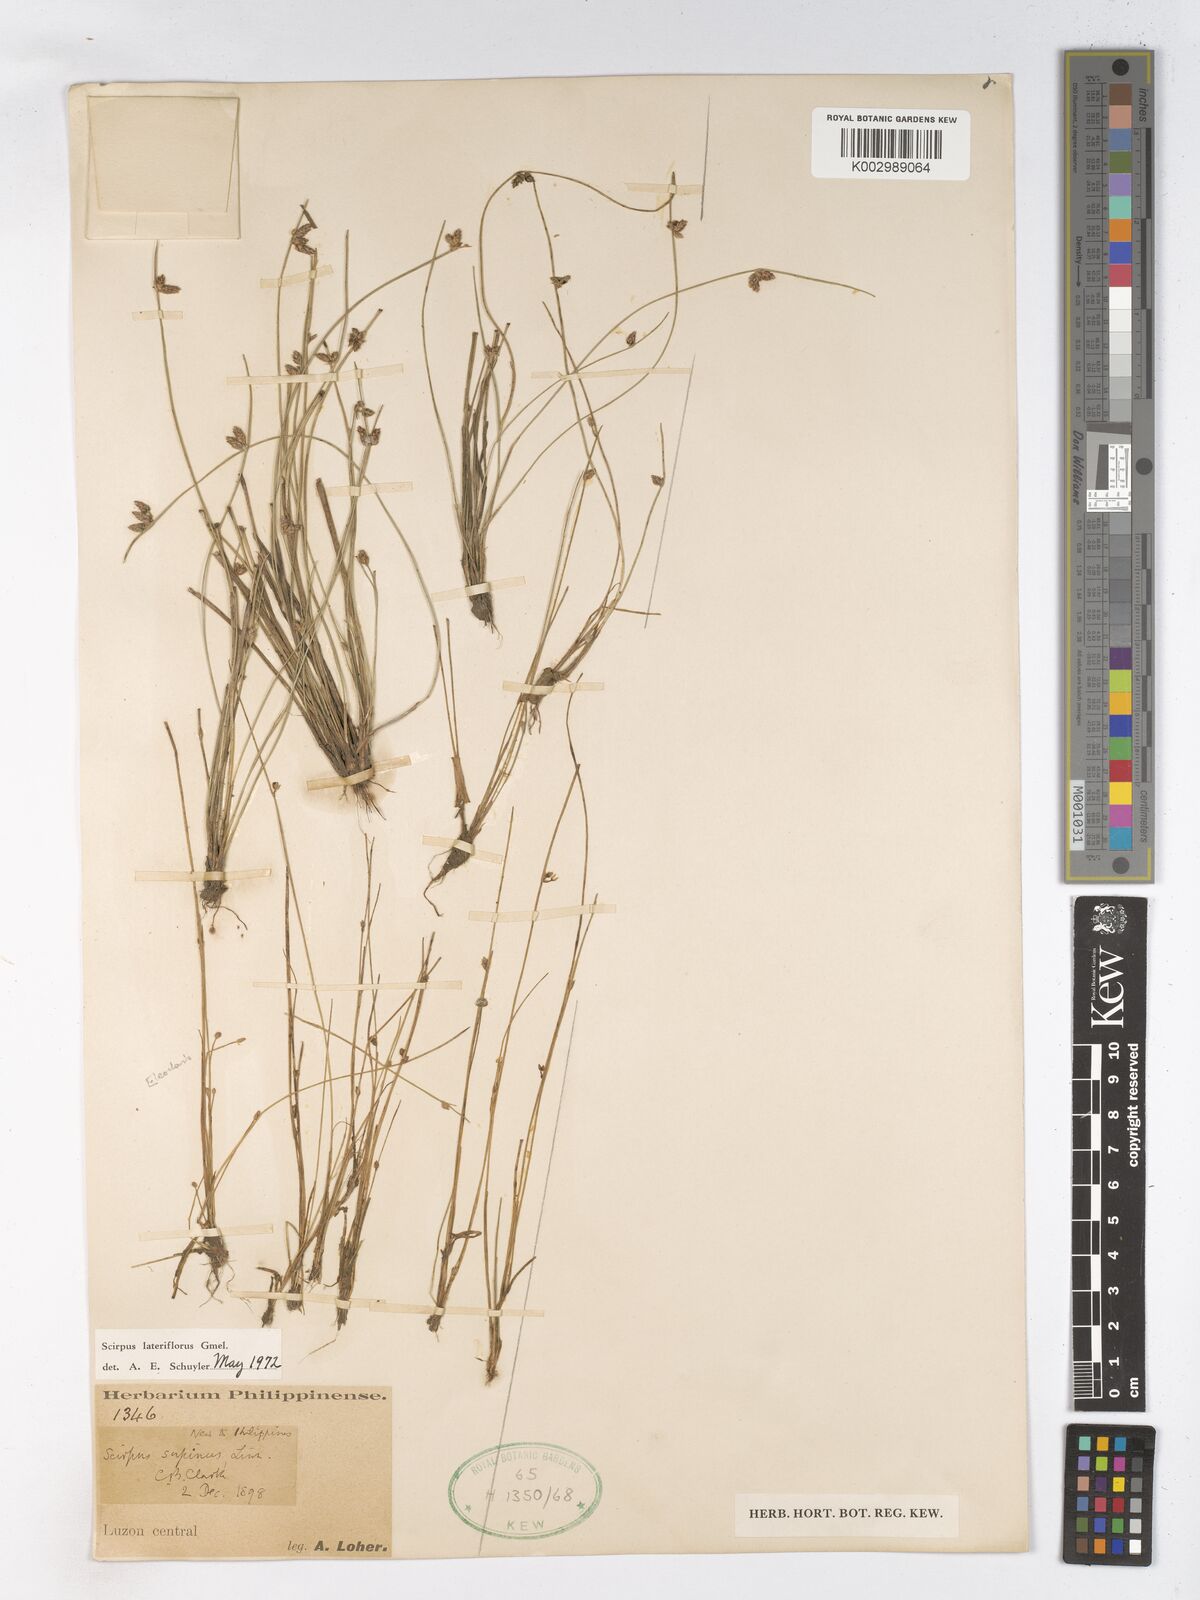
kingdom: Plantae
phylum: Tracheophyta
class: Liliopsida
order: Poales
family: Cyperaceae
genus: Schoenoplectiella
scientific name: Schoenoplectiella lateriflora
